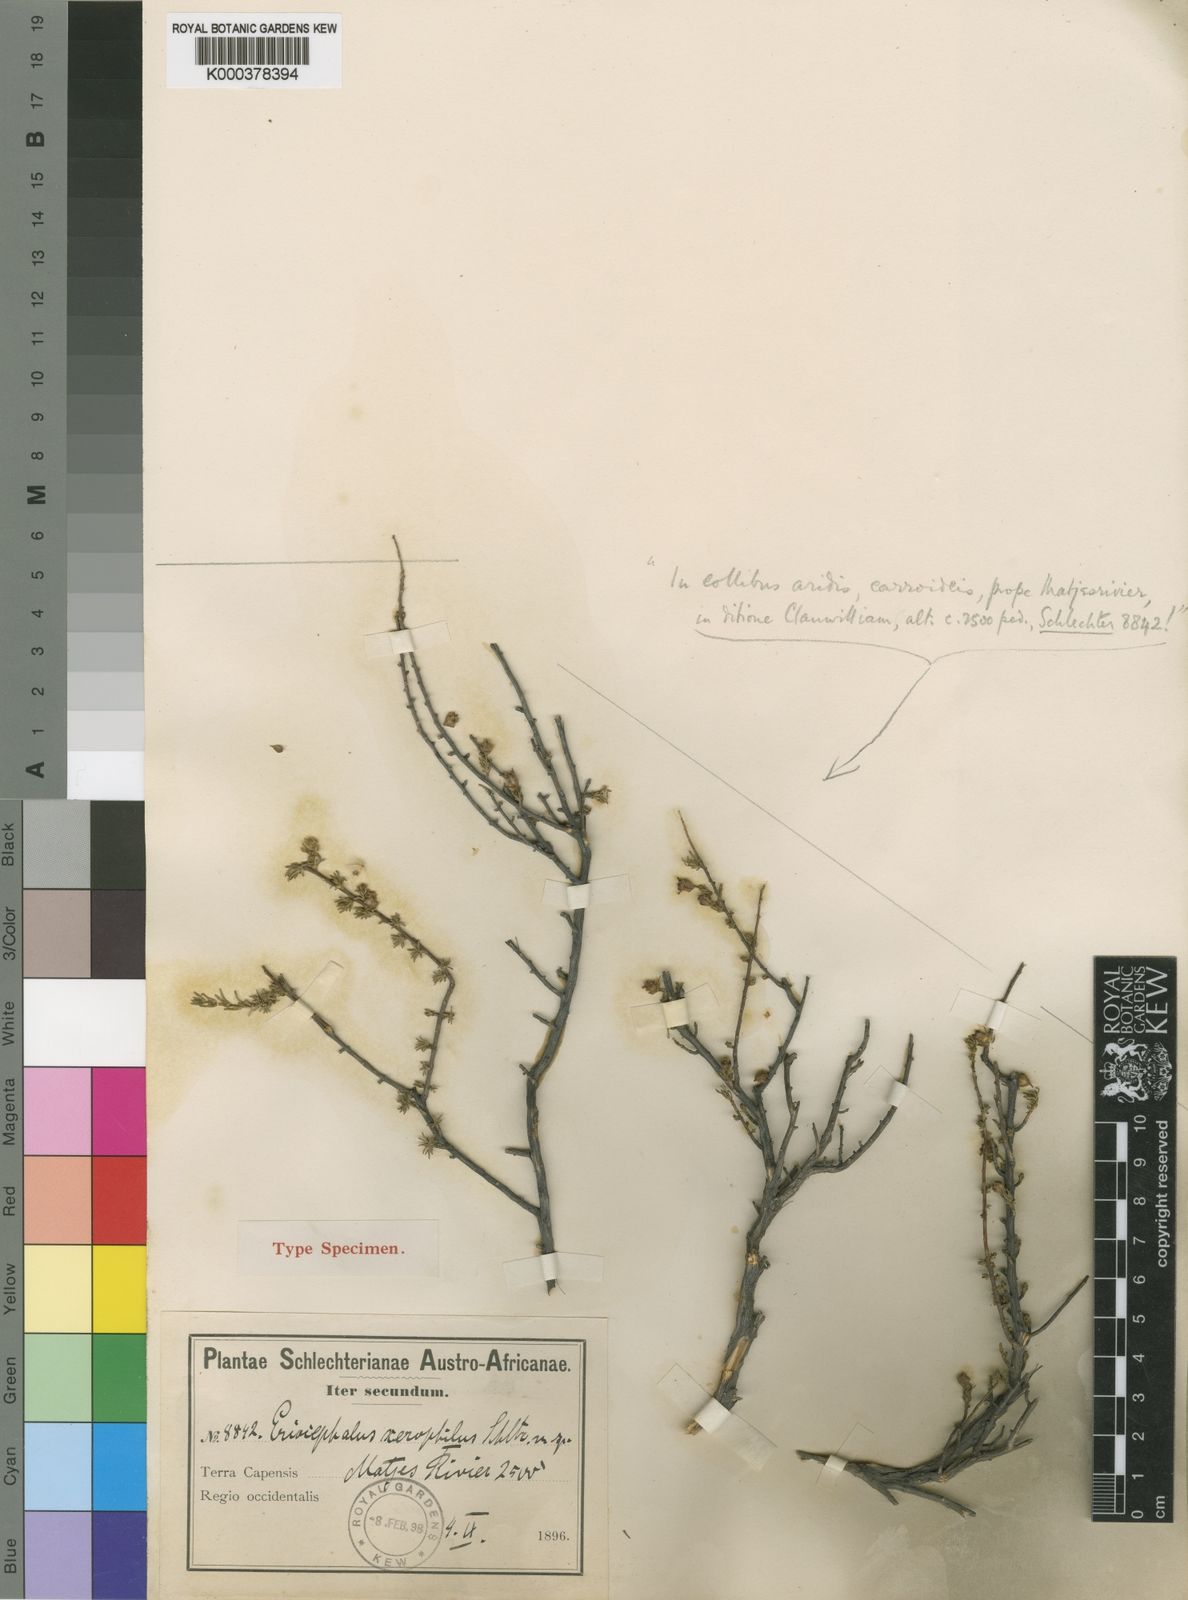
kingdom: Plantae
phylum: Tracheophyta
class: Magnoliopsida
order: Asterales
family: Asteraceae
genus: Eriocephalus
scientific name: Eriocephalus purpureus
